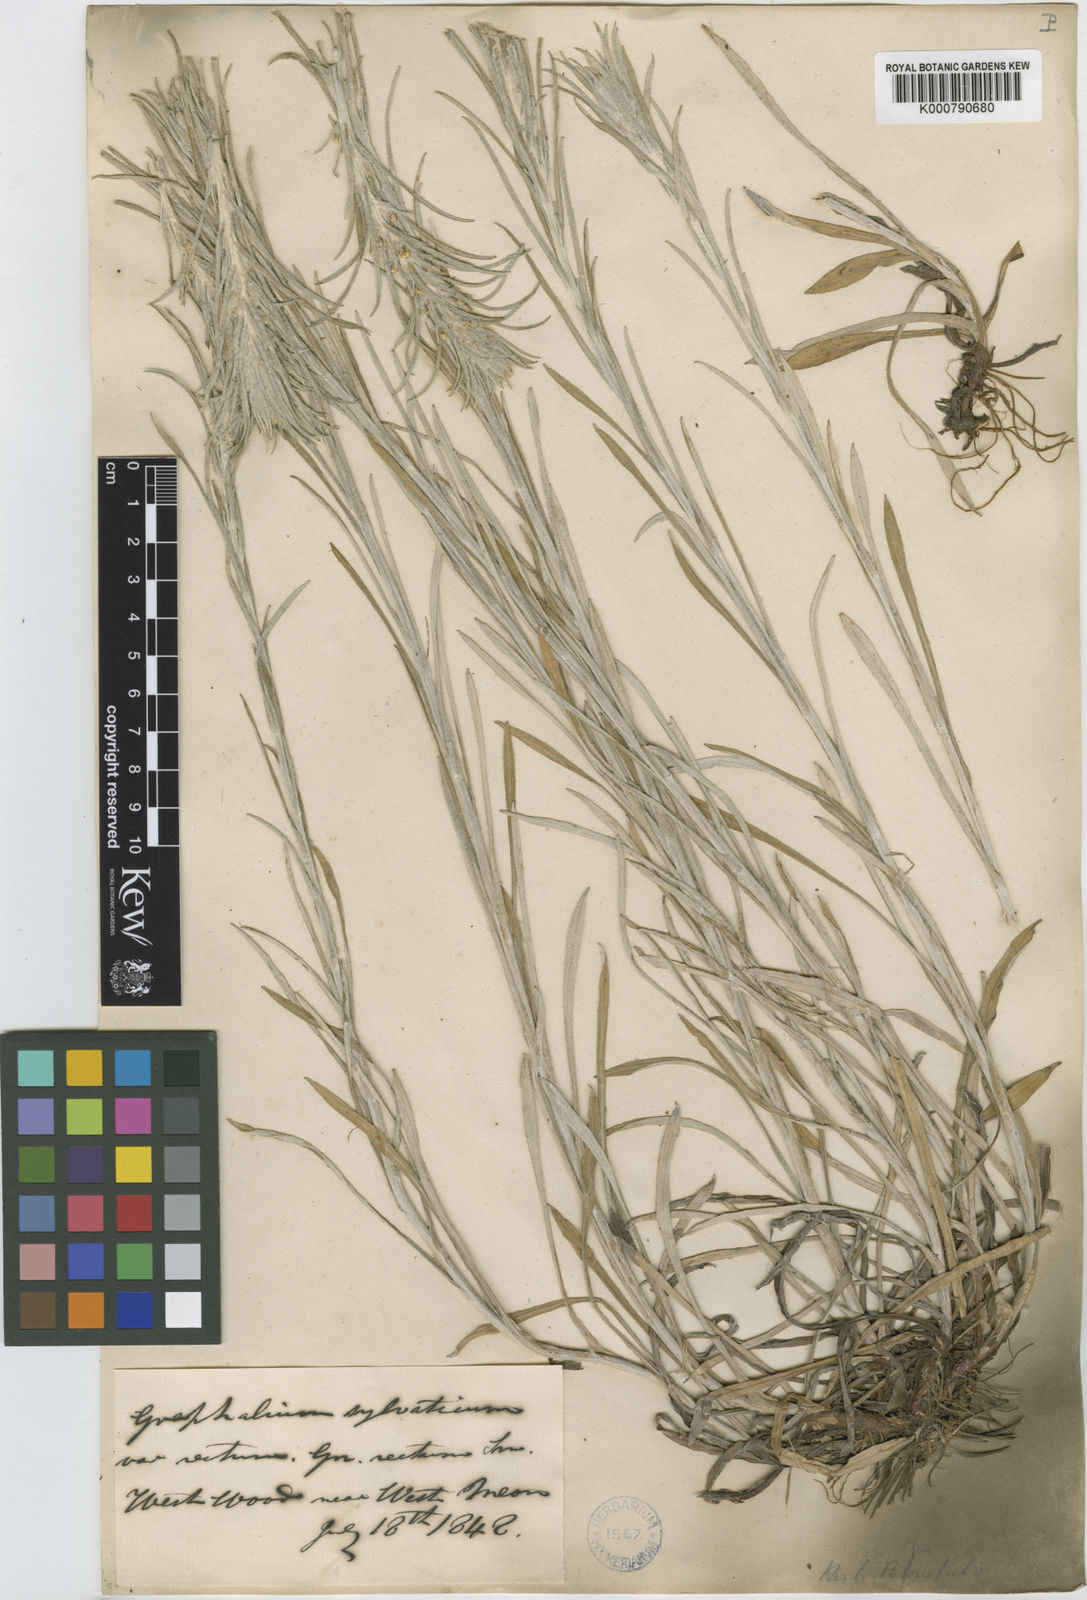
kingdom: Plantae
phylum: Tracheophyta
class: Magnoliopsida
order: Asterales
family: Asteraceae
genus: Omalotheca
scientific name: Omalotheca sylvatica
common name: Heath cudweed
